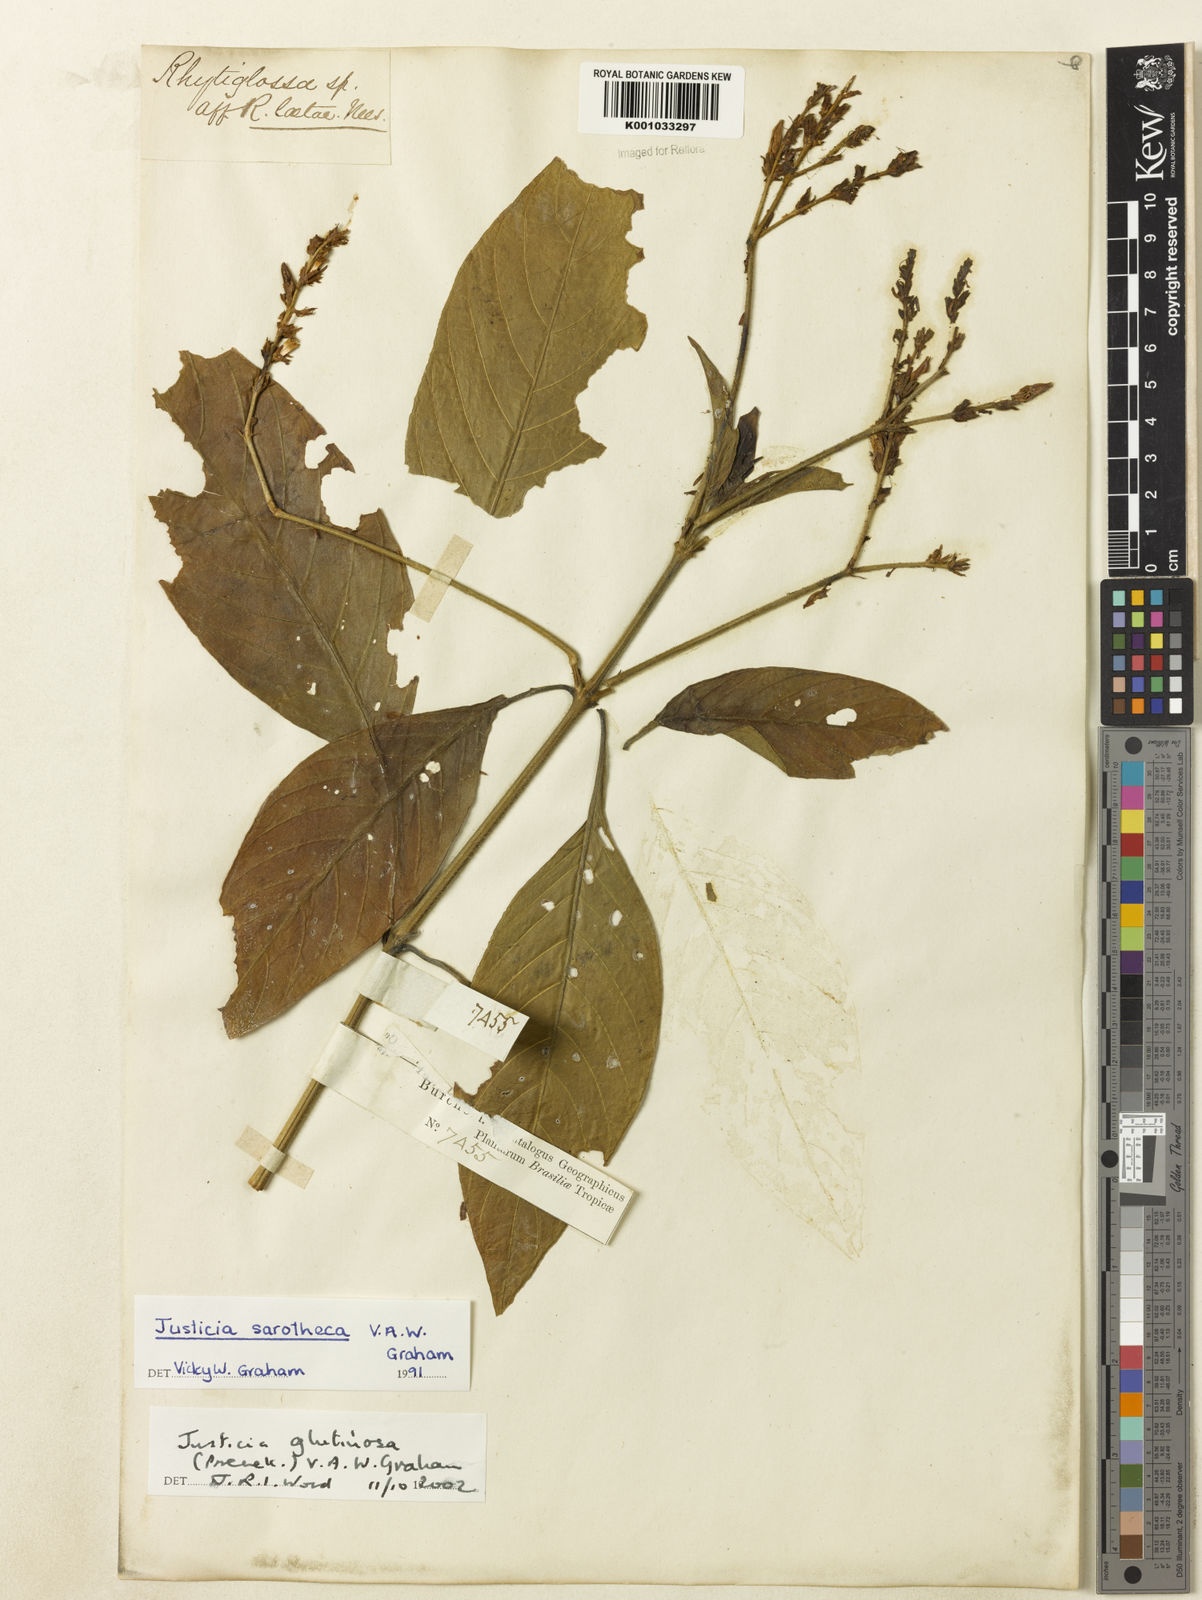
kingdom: Plantae
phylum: Tracheophyta
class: Magnoliopsida
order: Lamiales
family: Acanthaceae
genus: Justicia
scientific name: Justicia glutinosa
